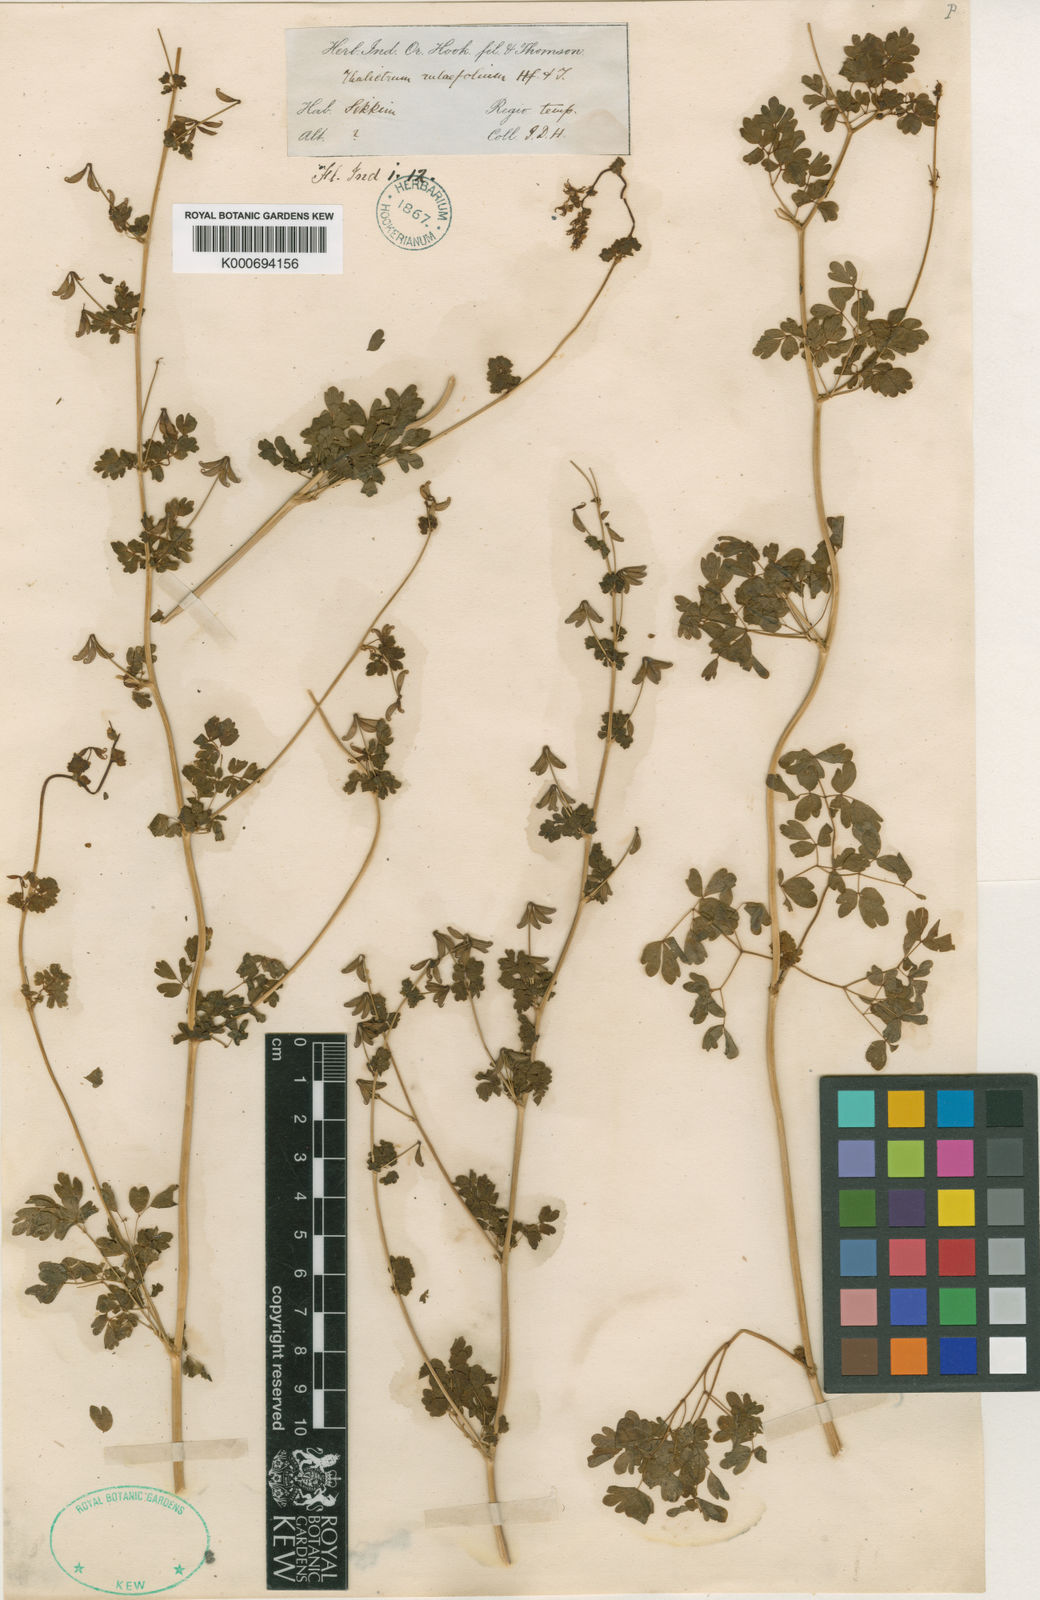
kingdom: Plantae
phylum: Tracheophyta
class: Magnoliopsida
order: Ranunculales
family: Ranunculaceae
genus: Thalictrum
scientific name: Thalictrum
